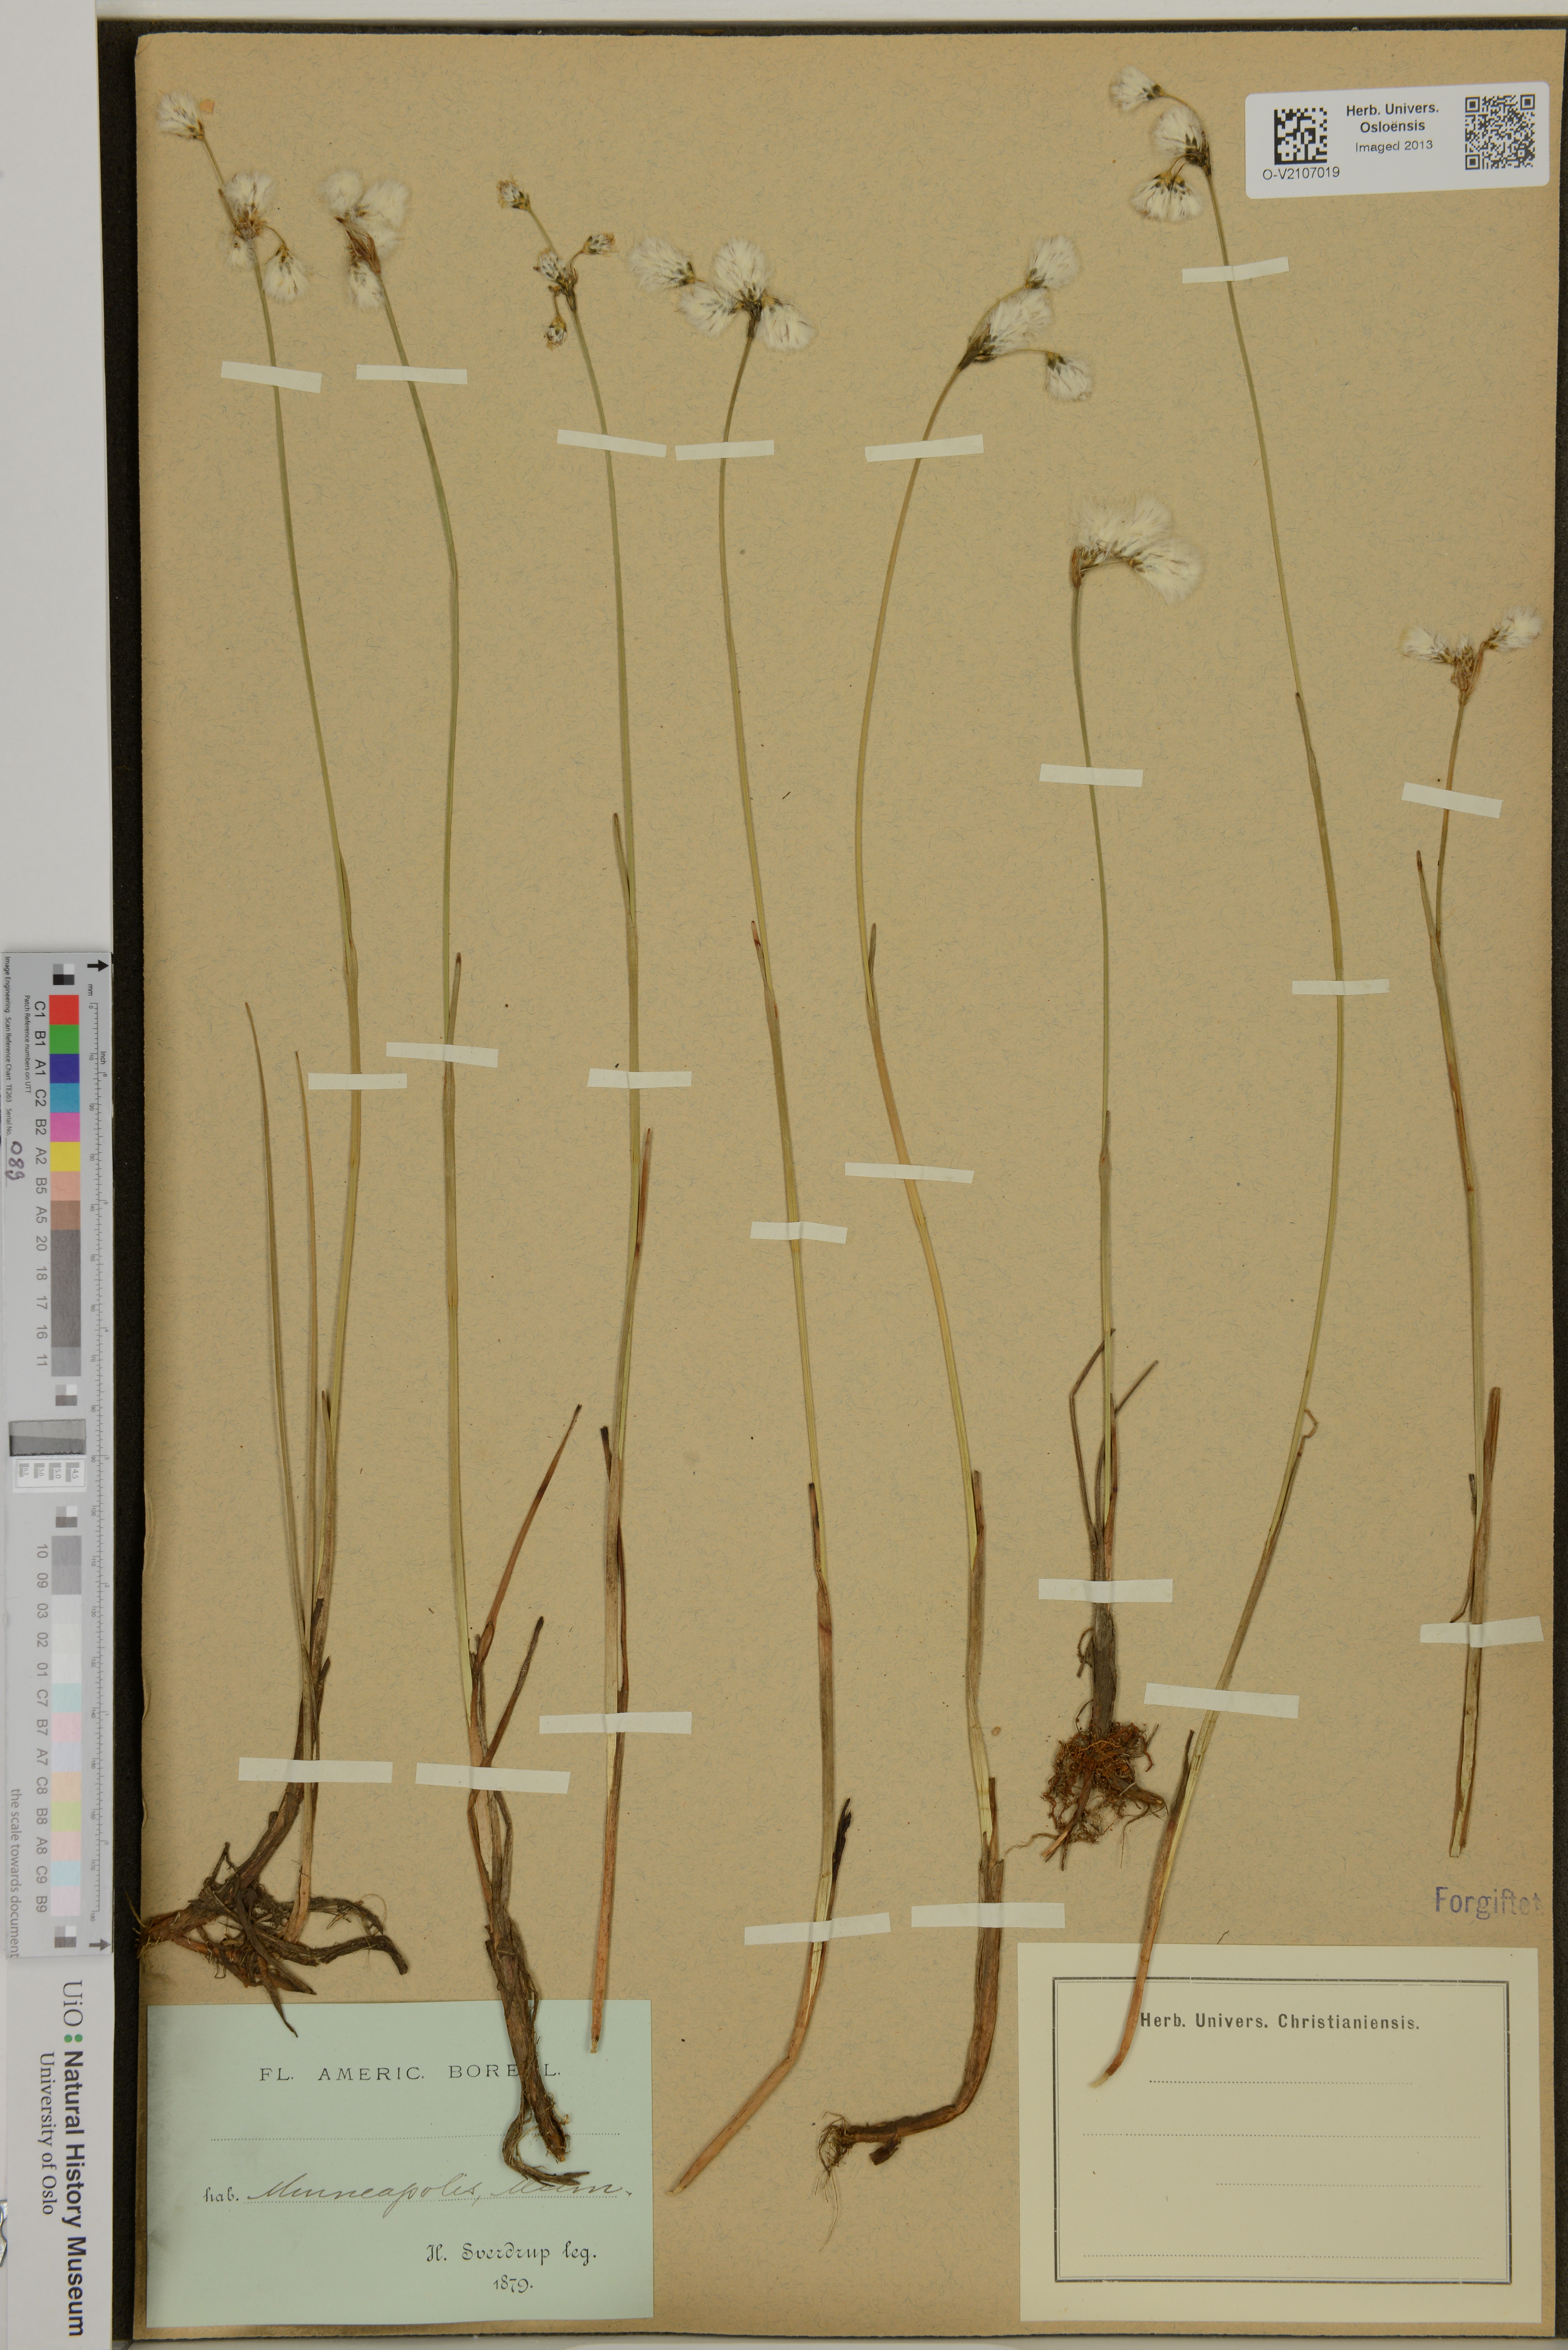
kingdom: Plantae
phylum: Tracheophyta
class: Liliopsida
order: Poales
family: Cyperaceae
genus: Eriophorum
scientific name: Eriophorum
